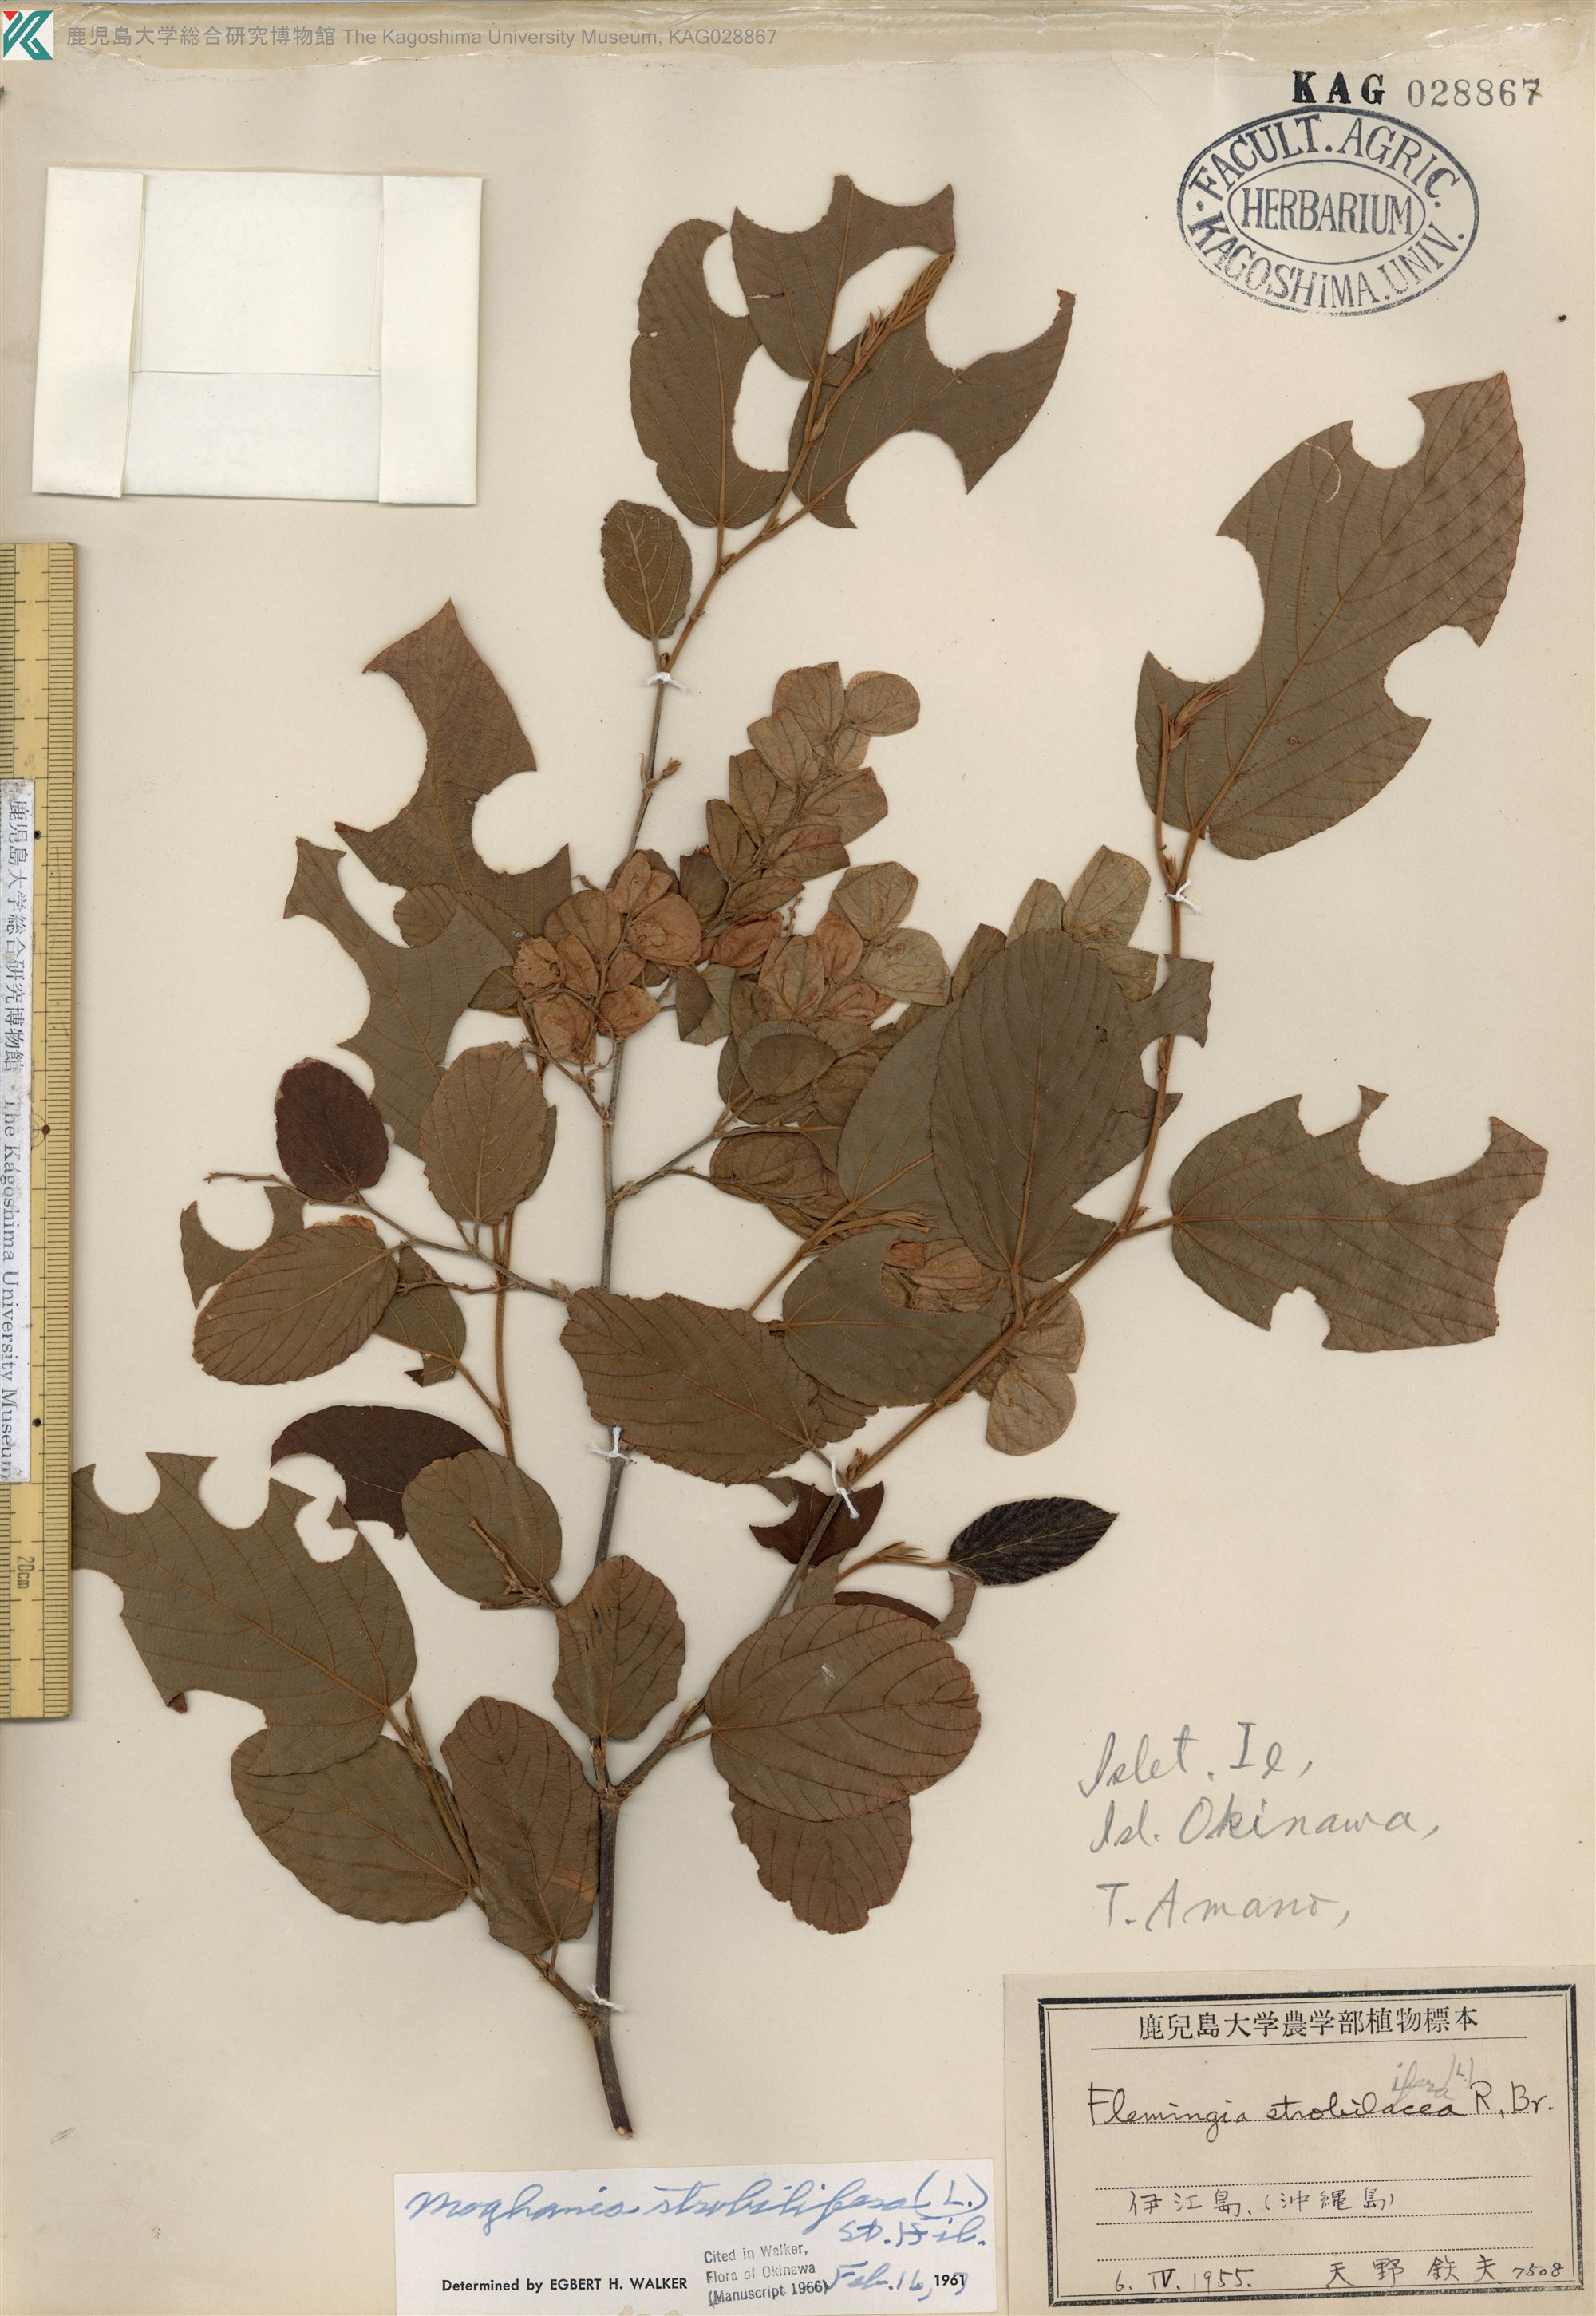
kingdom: Plantae
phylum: Tracheophyta
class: Magnoliopsida
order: Fabales
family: Fabaceae
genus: Flemingia
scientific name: Flemingia strobilifera
